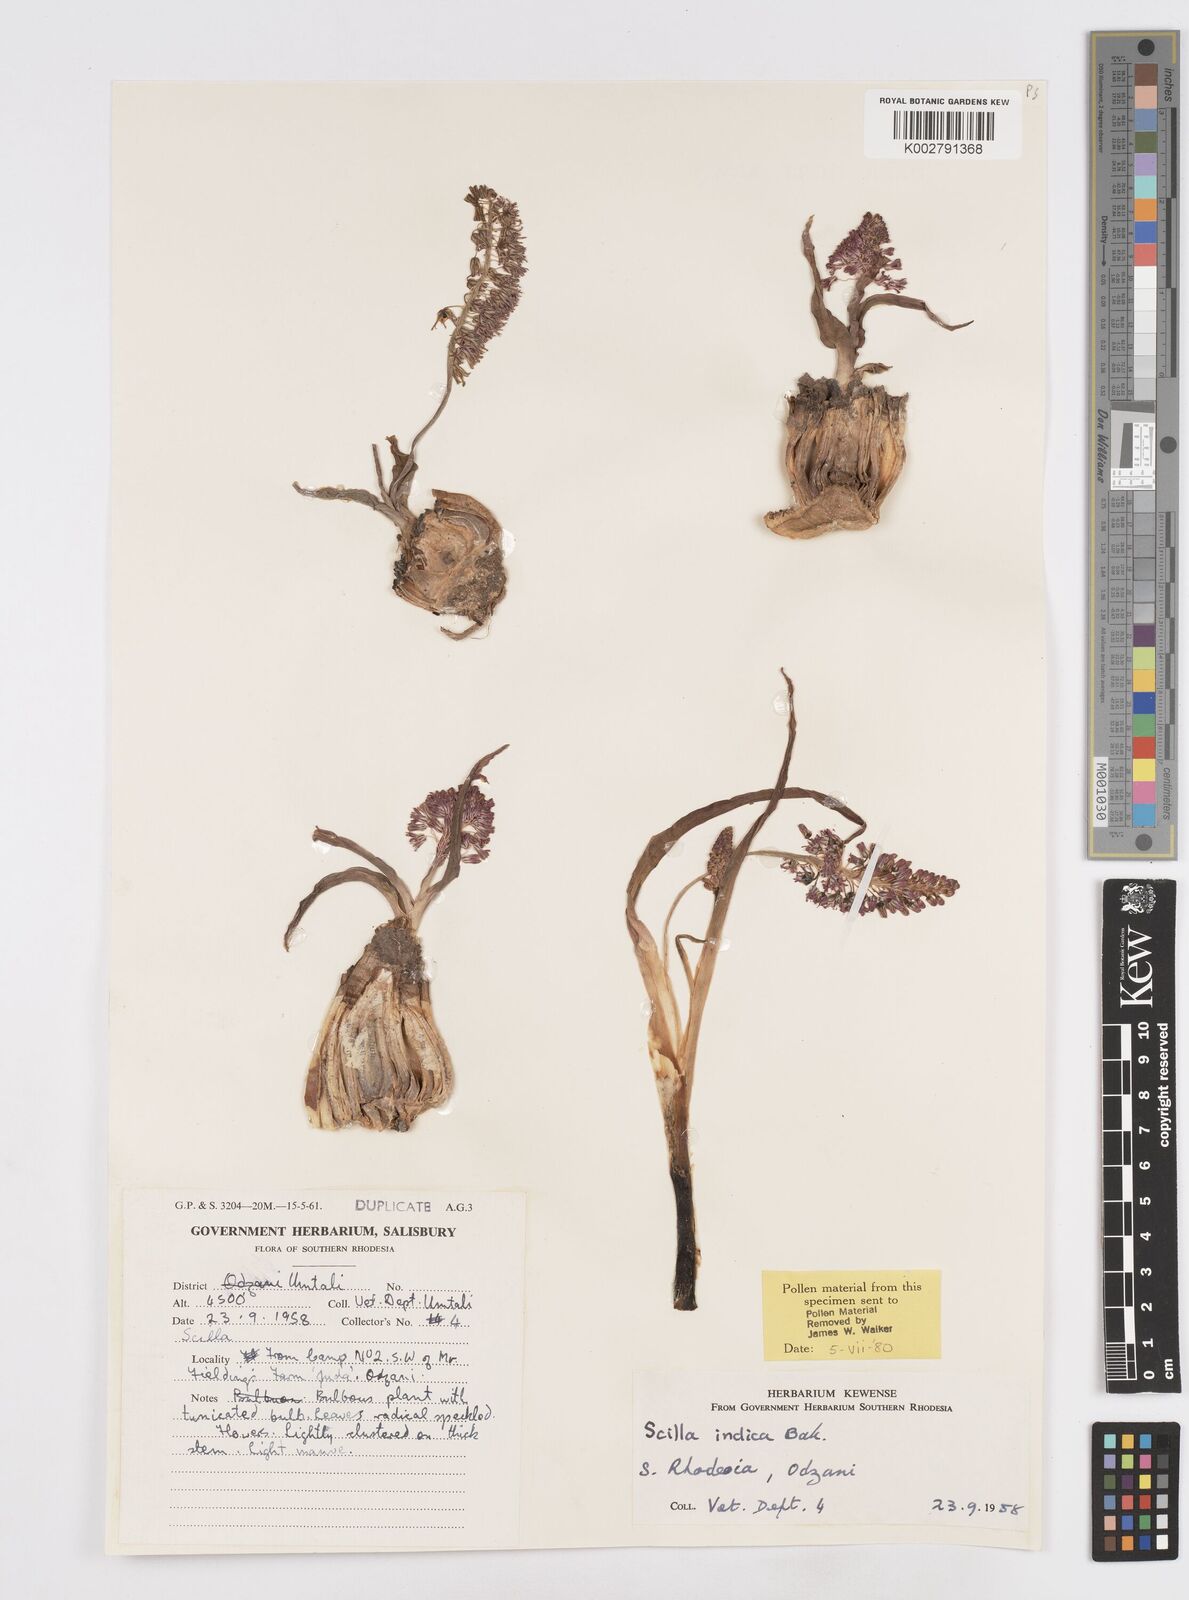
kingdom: Plantae
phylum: Tracheophyta
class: Liliopsida
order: Asparagales
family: Asparagaceae
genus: Ledebouria
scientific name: Ledebouria revoluta
